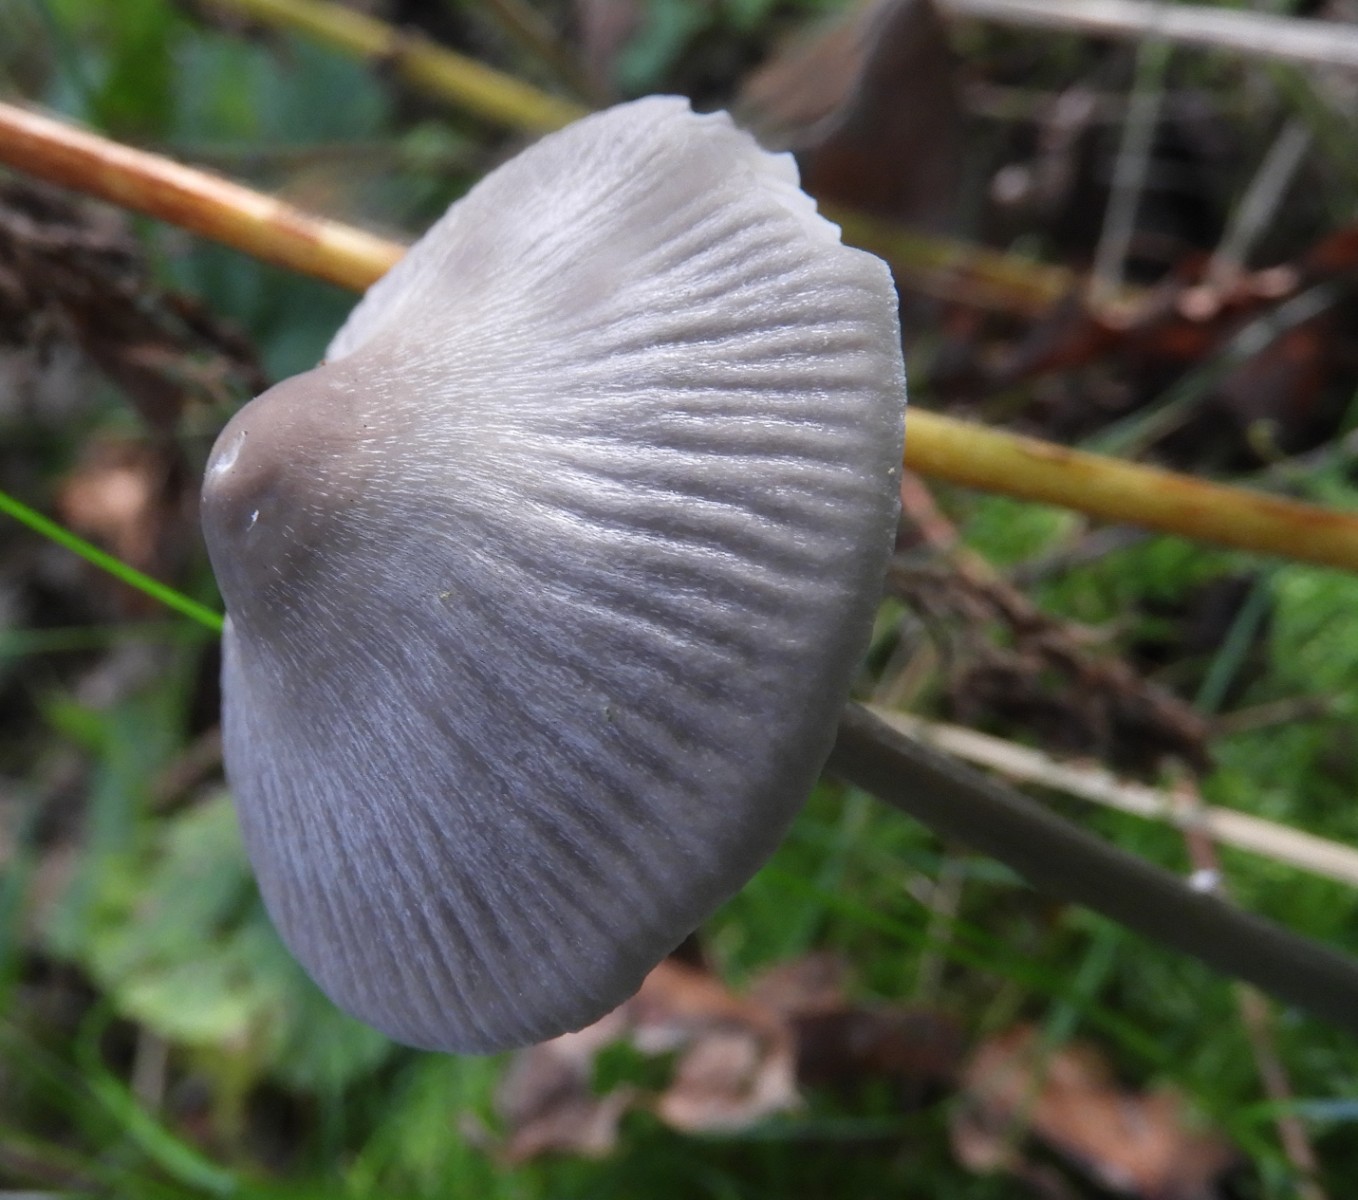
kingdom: Fungi
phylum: Basidiomycota
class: Agaricomycetes
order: Agaricales
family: Mycenaceae
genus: Mycena
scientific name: Mycena polygramma
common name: mangestribet huesvamp
